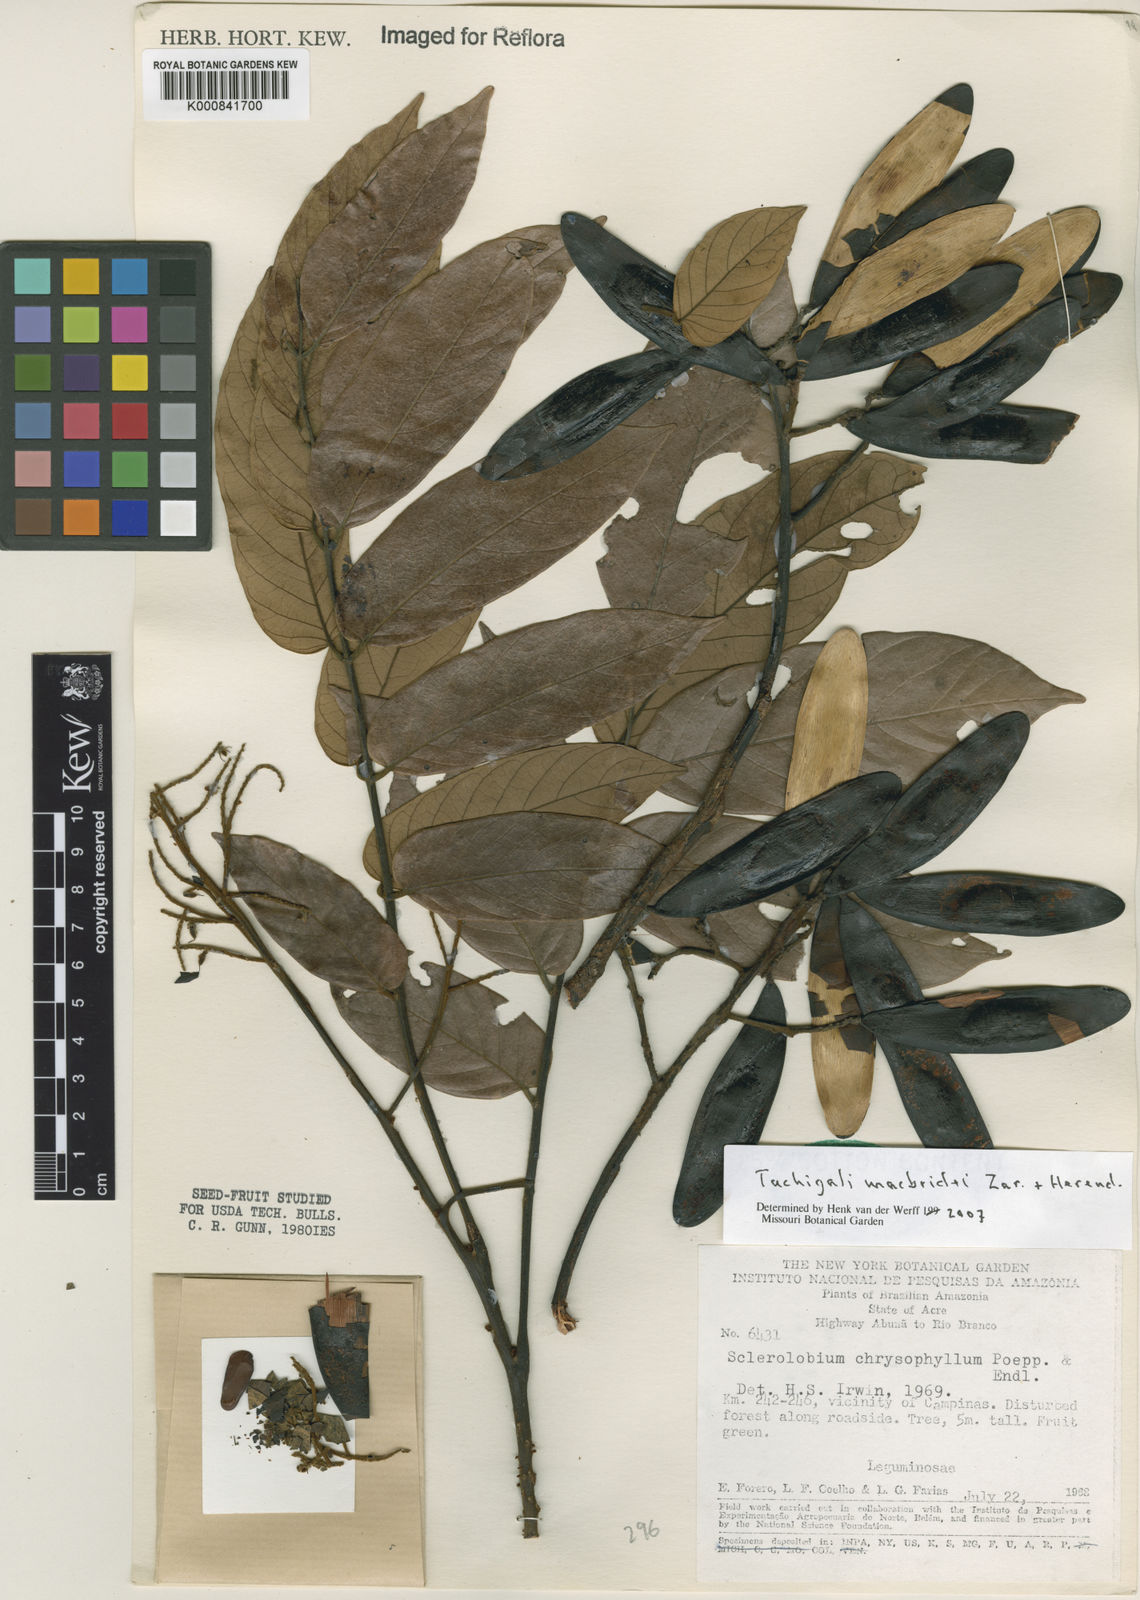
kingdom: Plantae
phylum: Tracheophyta
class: Magnoliopsida
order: Fabales
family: Fabaceae
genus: Tachigali
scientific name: Tachigali macbridei
